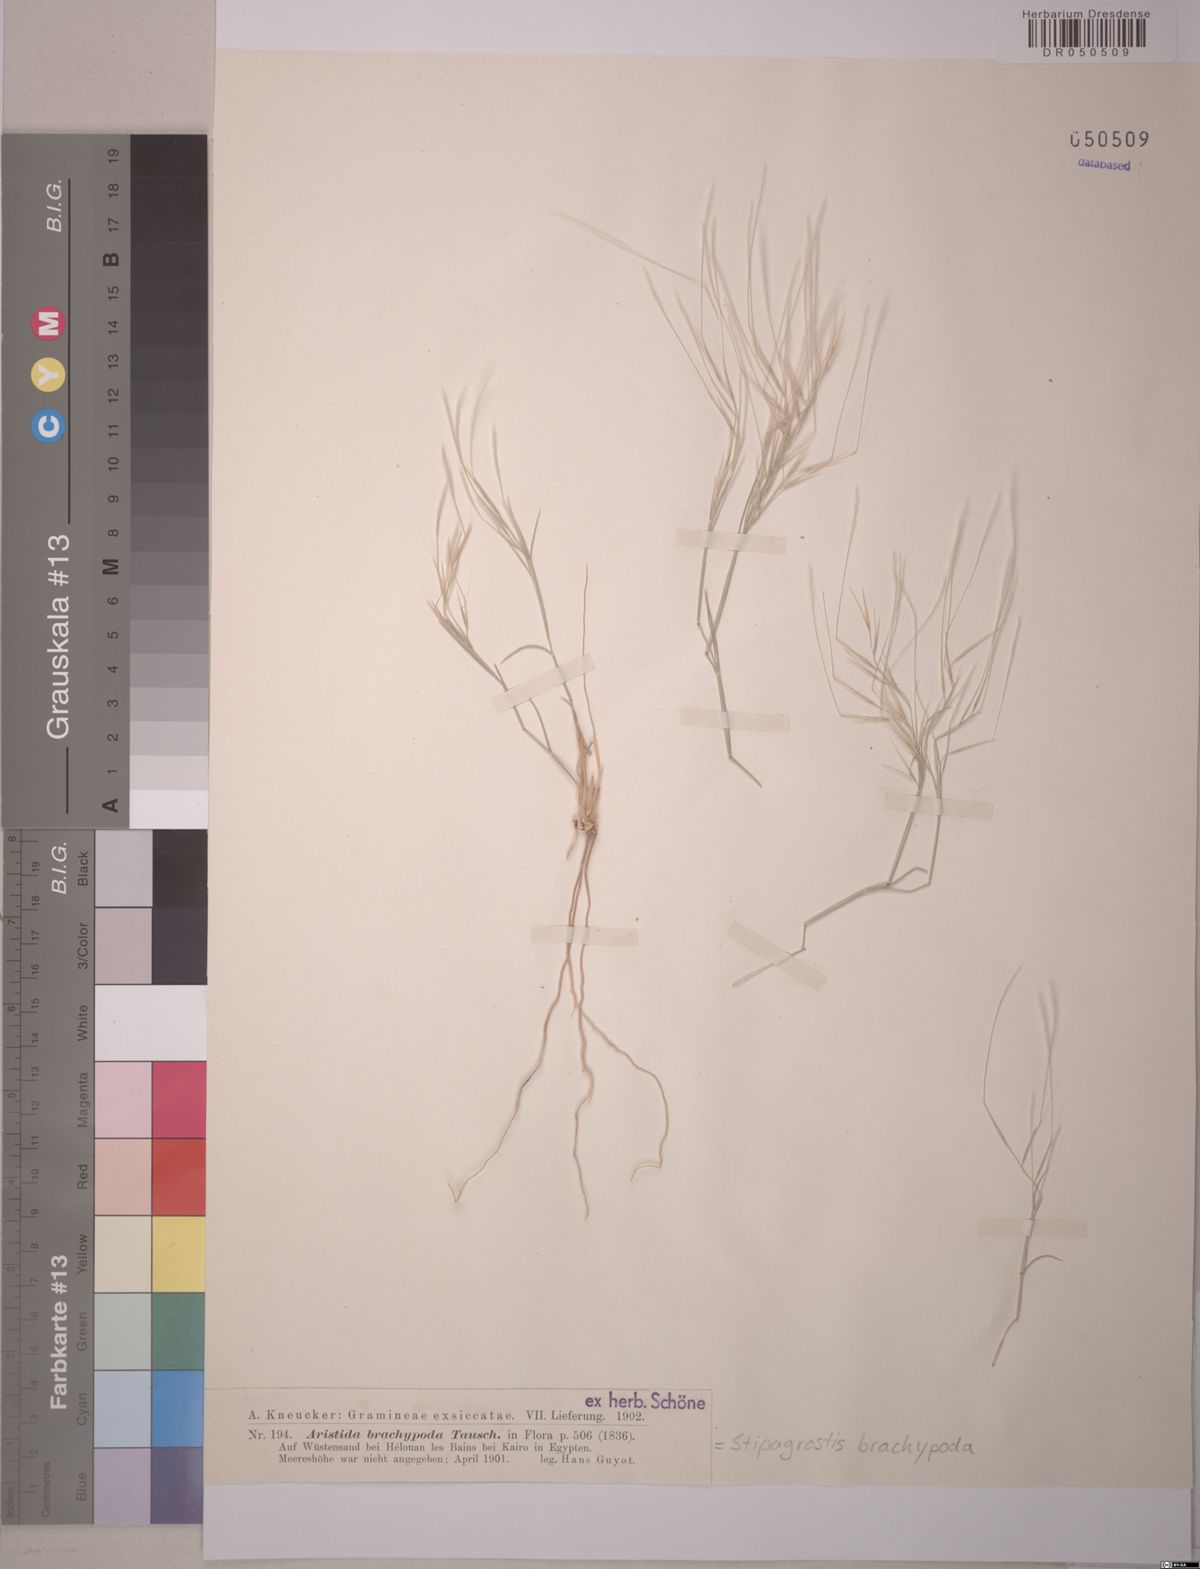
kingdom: Plantae
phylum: Tracheophyta
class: Liliopsida
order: Poales
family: Poaceae
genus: Stipagrostis
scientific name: Stipagrostis plumosa
